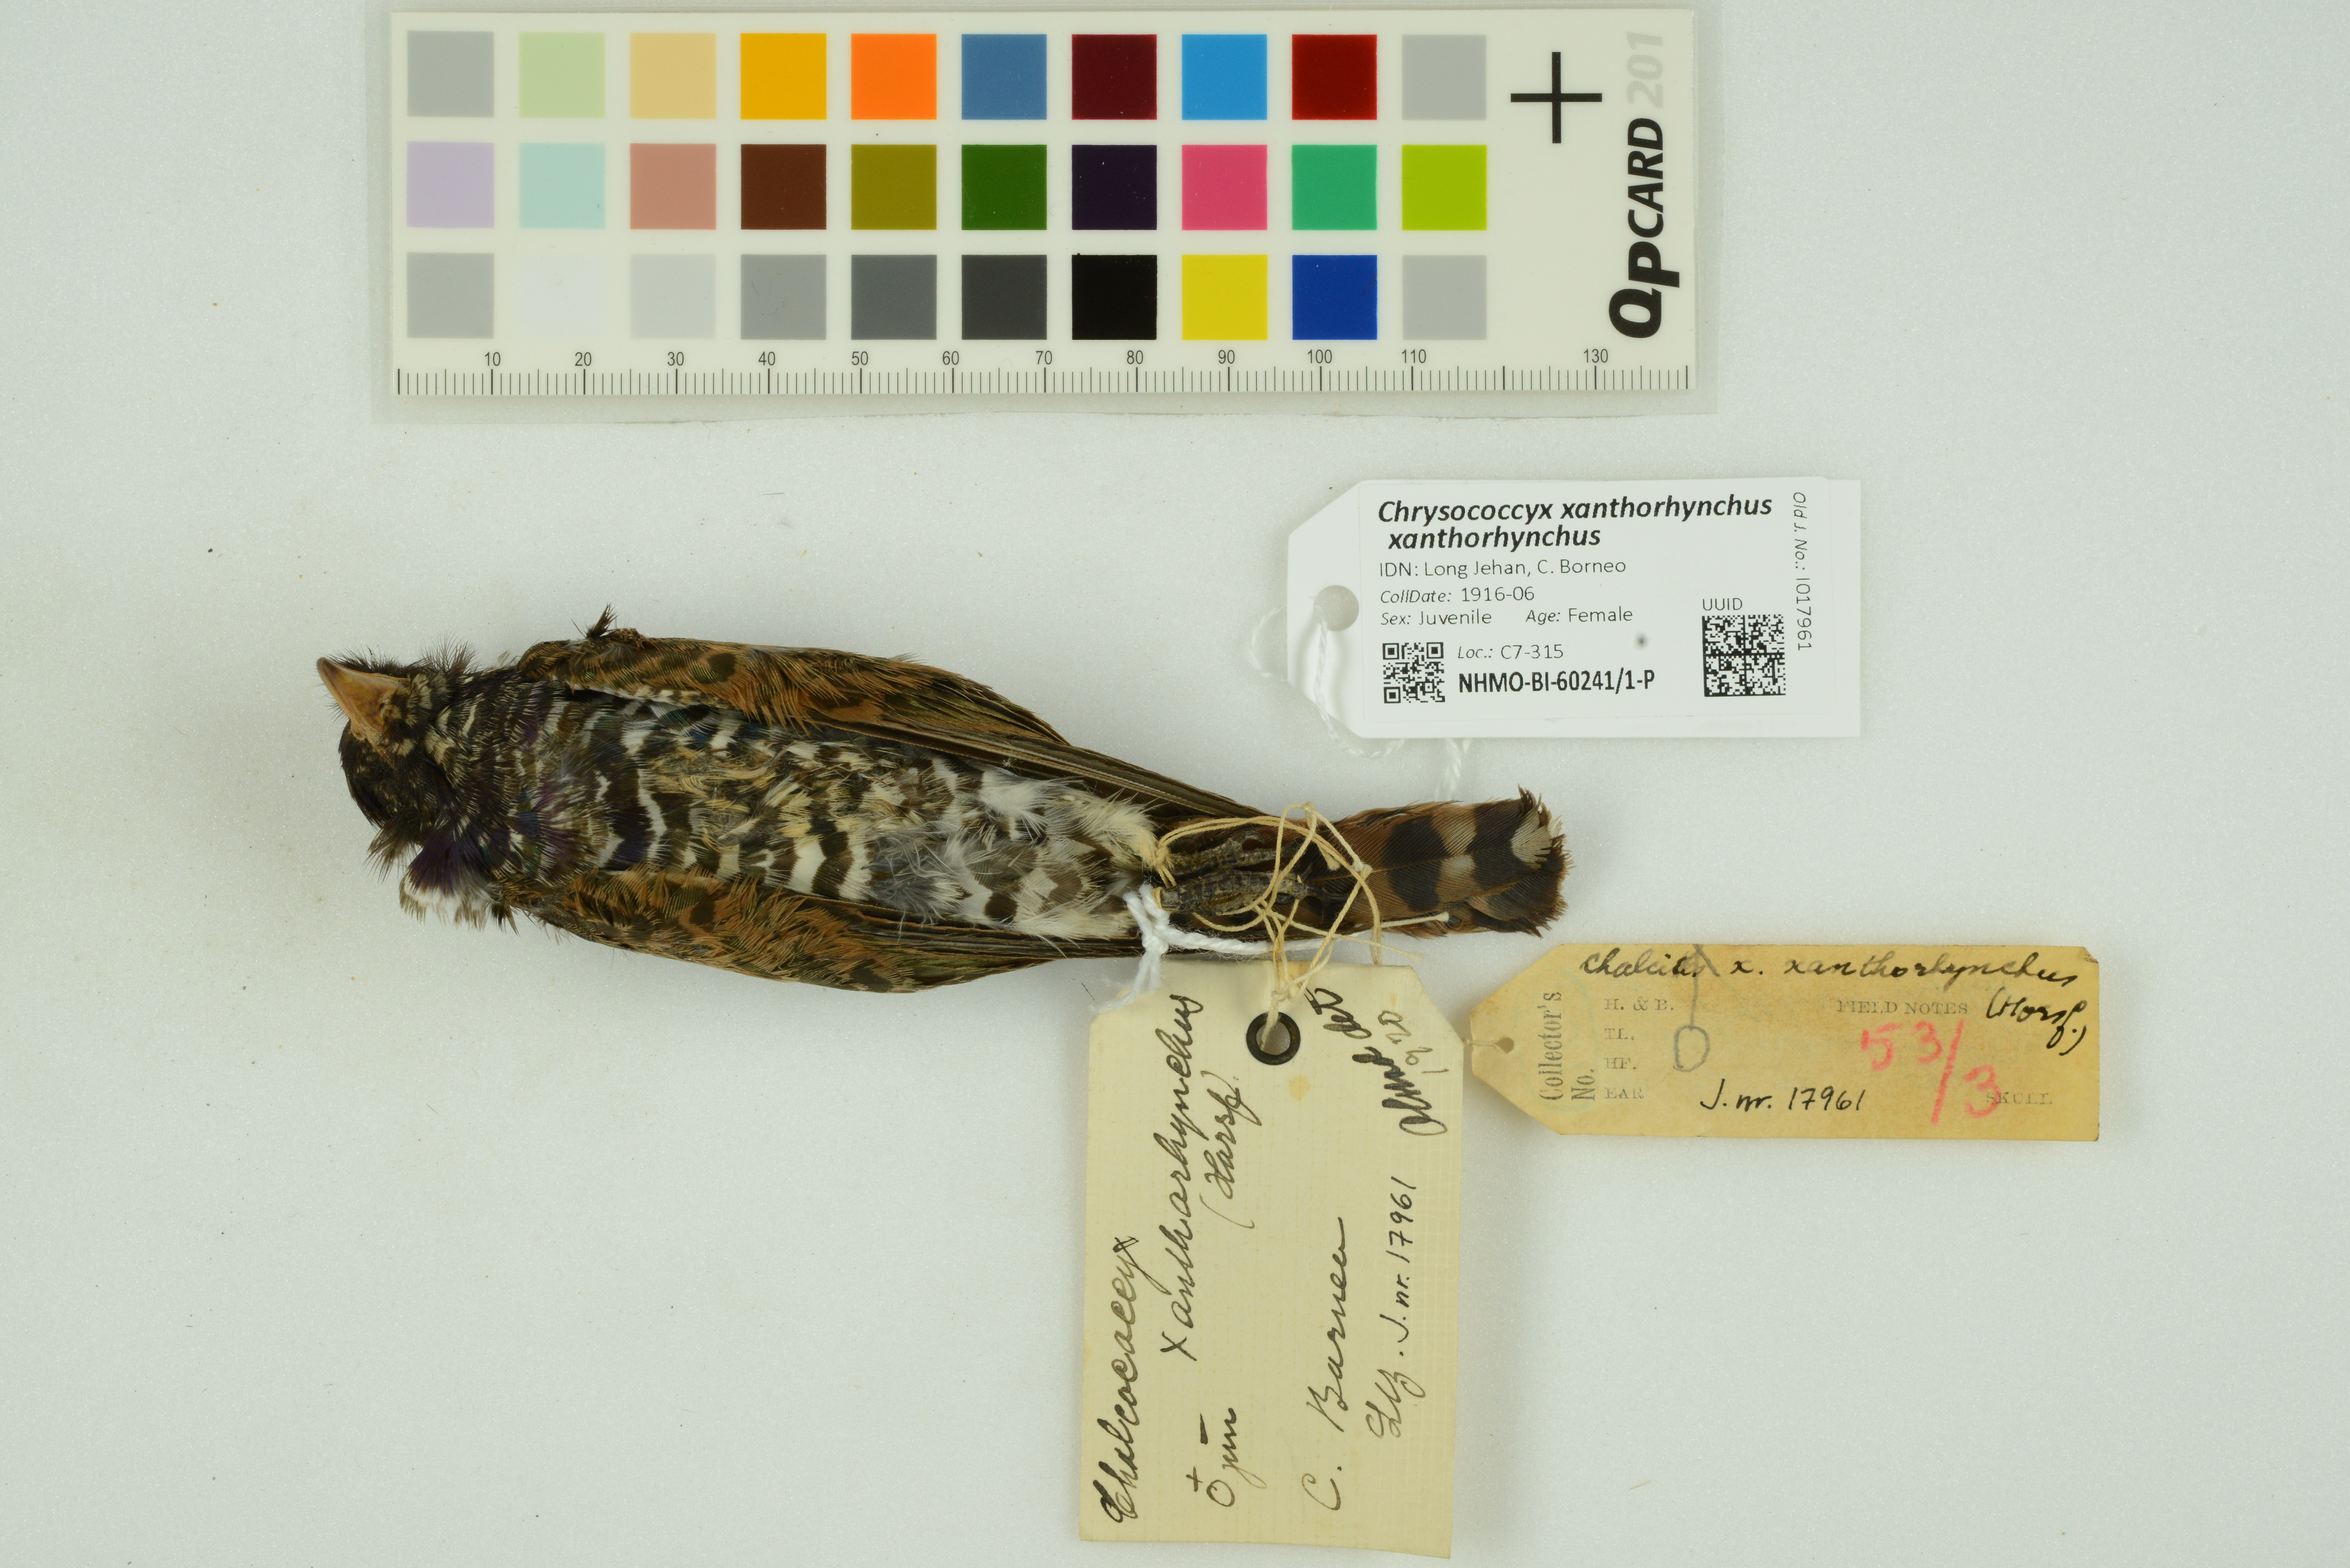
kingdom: Animalia
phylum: Chordata
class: Aves
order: Cuculiformes
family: Cuculidae
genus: Chrysococcyx
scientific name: Chrysococcyx xanthorhynchus
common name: Violet cuckoo
